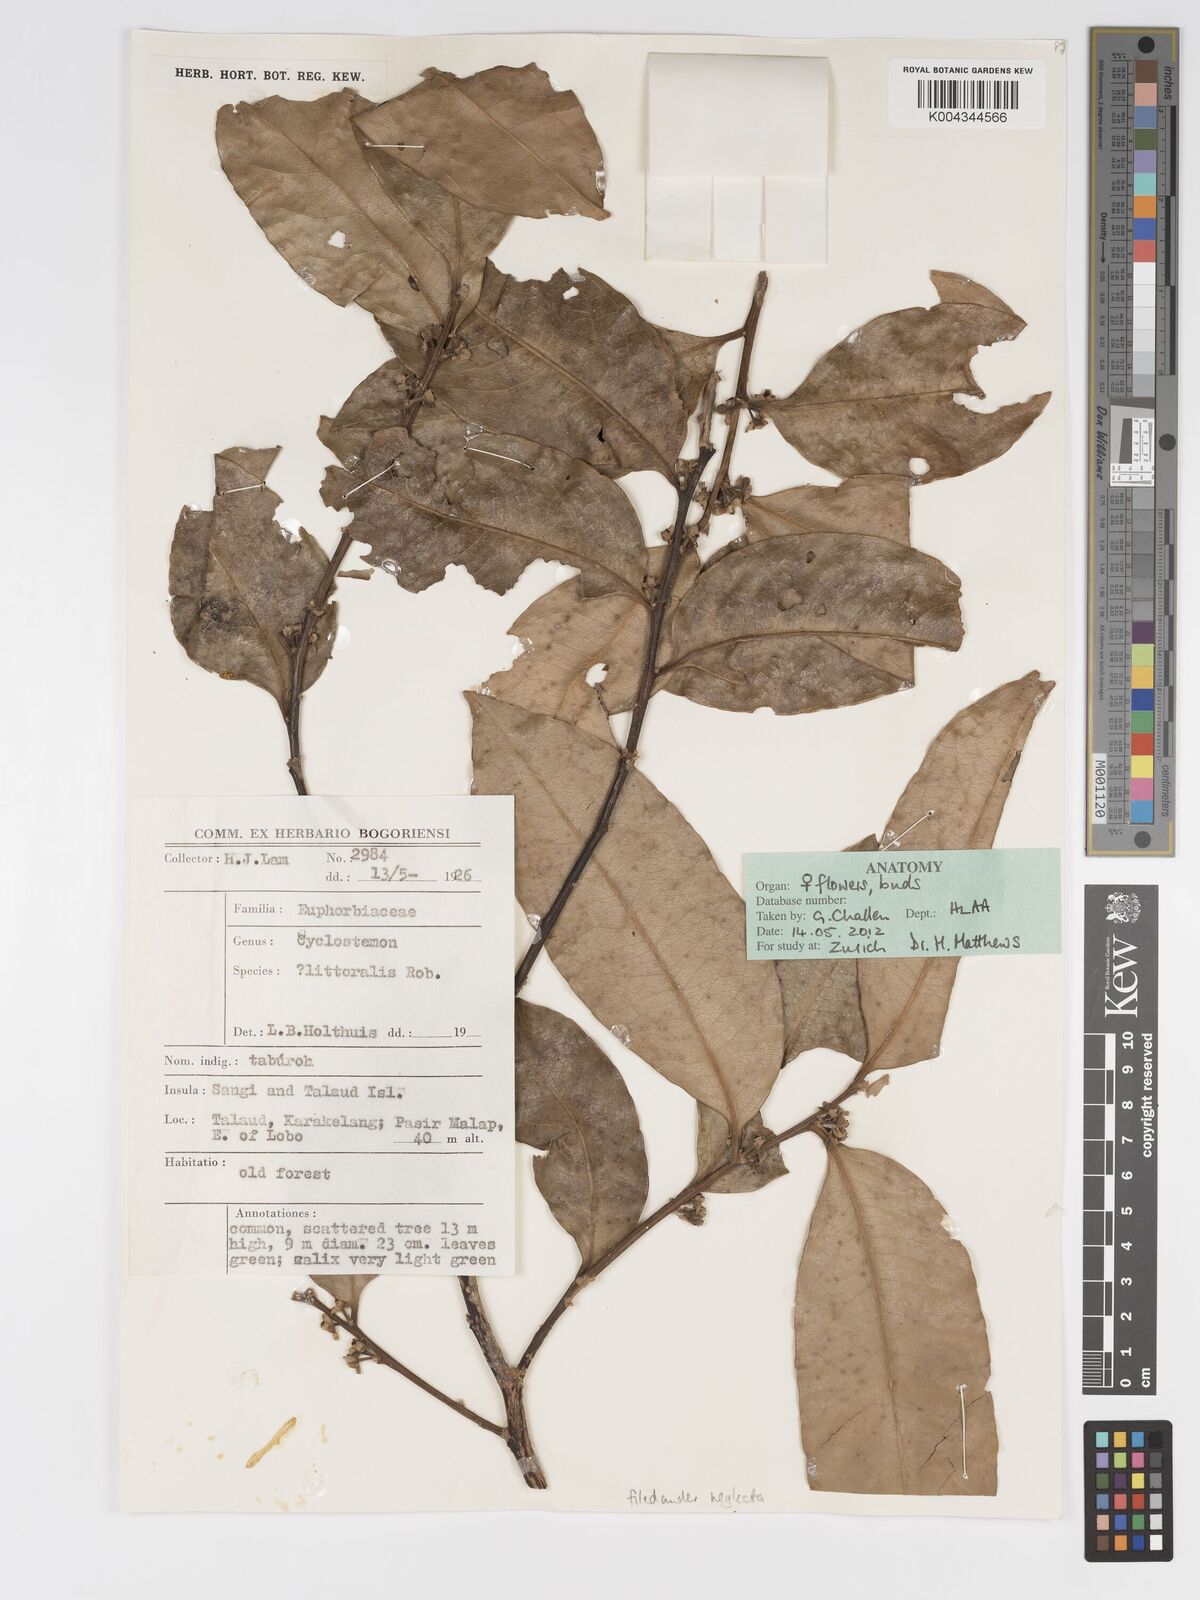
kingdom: Plantae
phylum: Tracheophyta
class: Magnoliopsida
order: Malpighiales
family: Putranjivaceae
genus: Drypetes
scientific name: Drypetes neglecta
